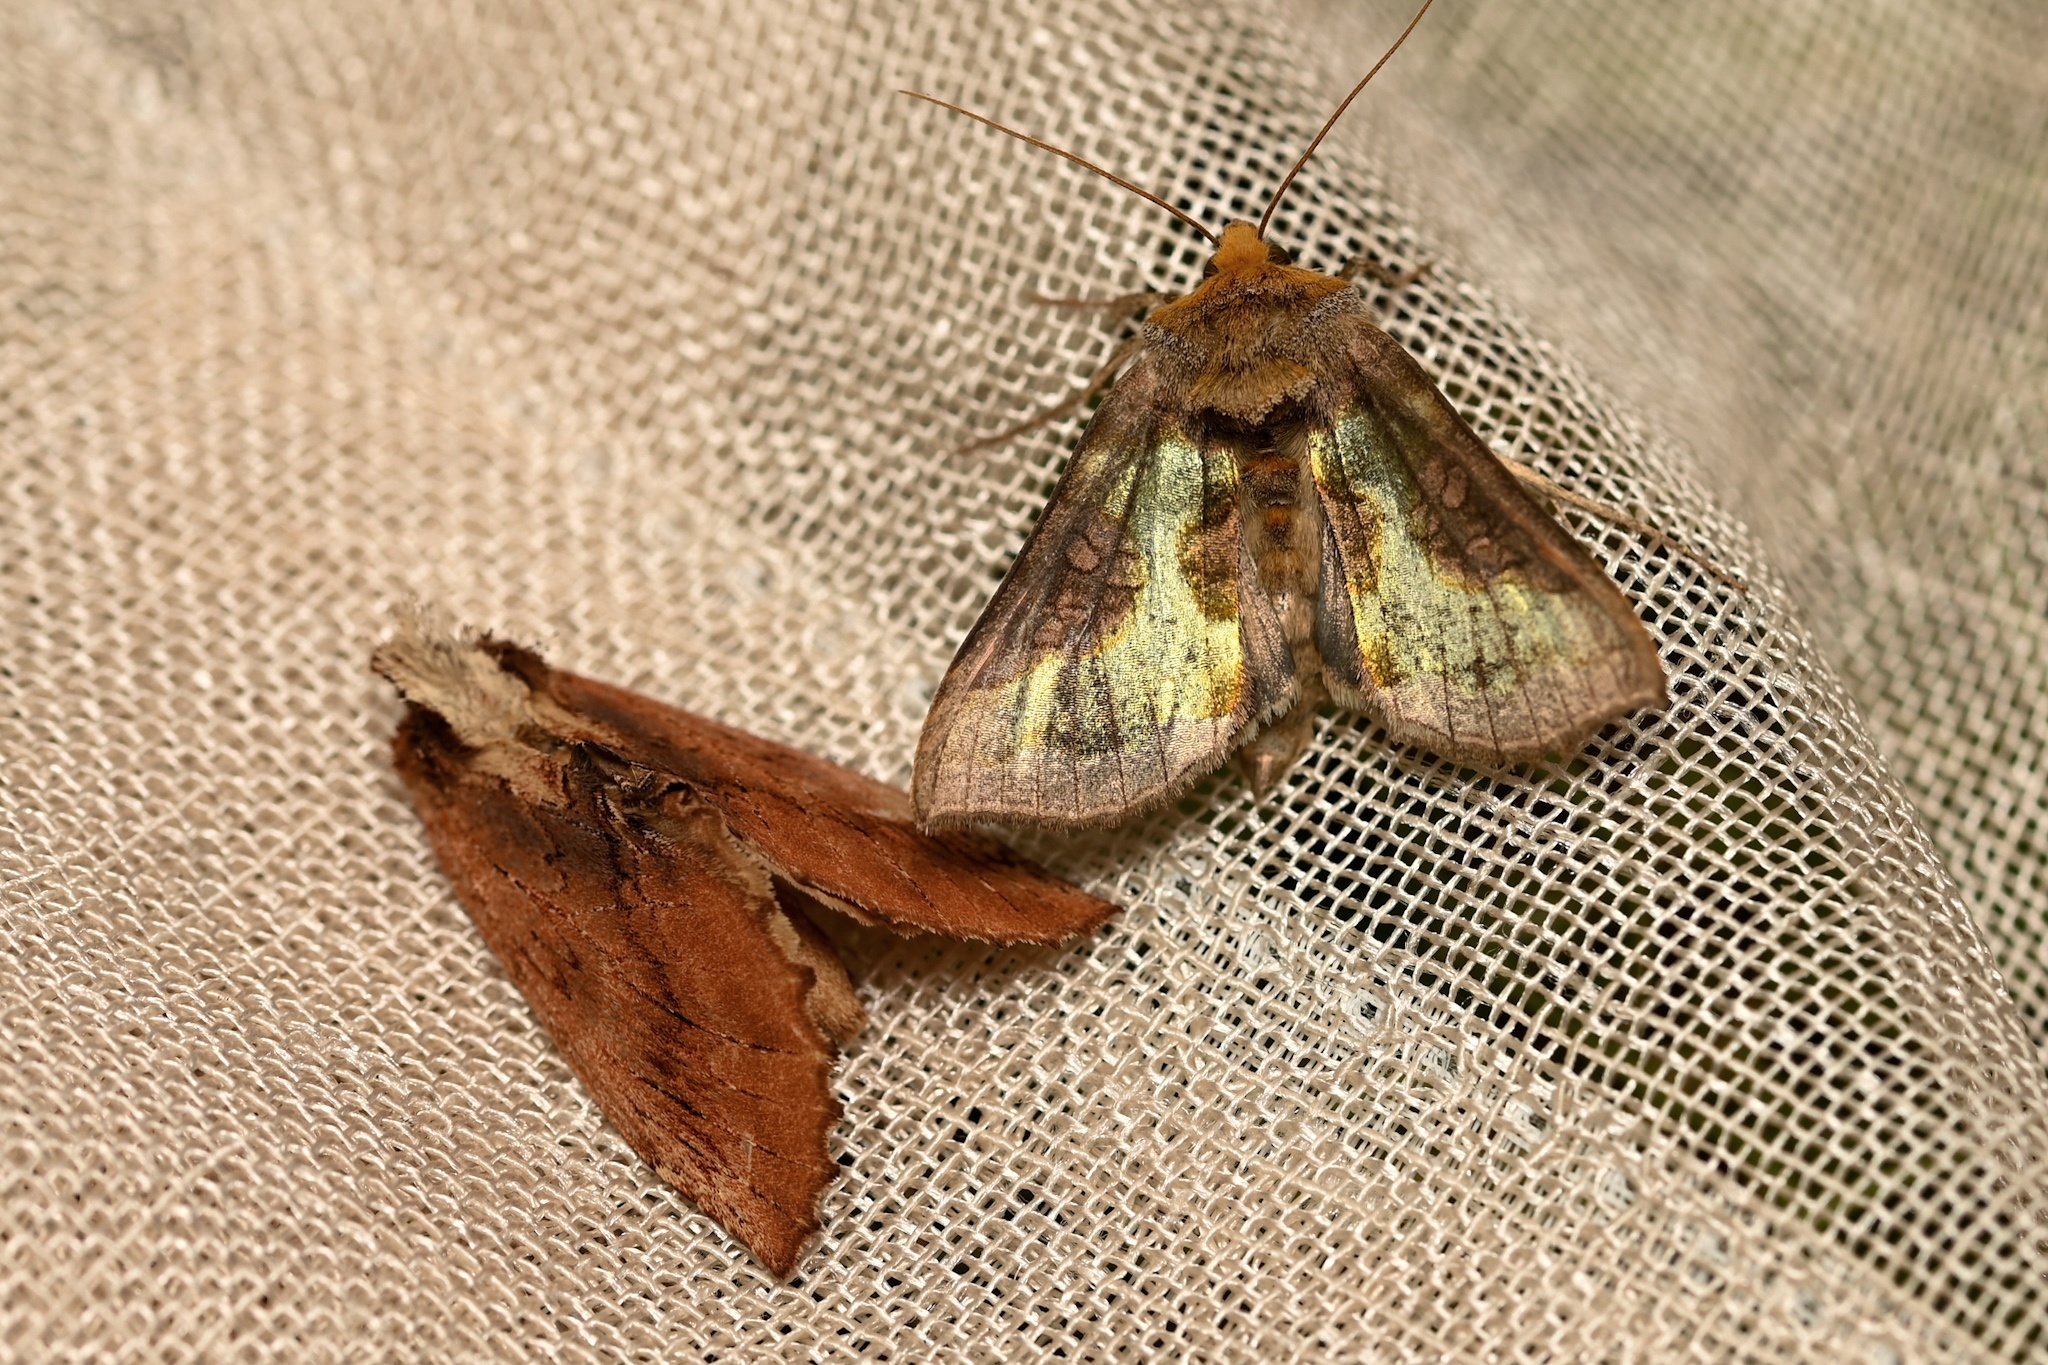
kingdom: Animalia
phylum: Arthropoda
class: Insecta
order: Lepidoptera
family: Noctuidae
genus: Diachrysia
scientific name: Diachrysia chrysitis
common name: Burnished brass
